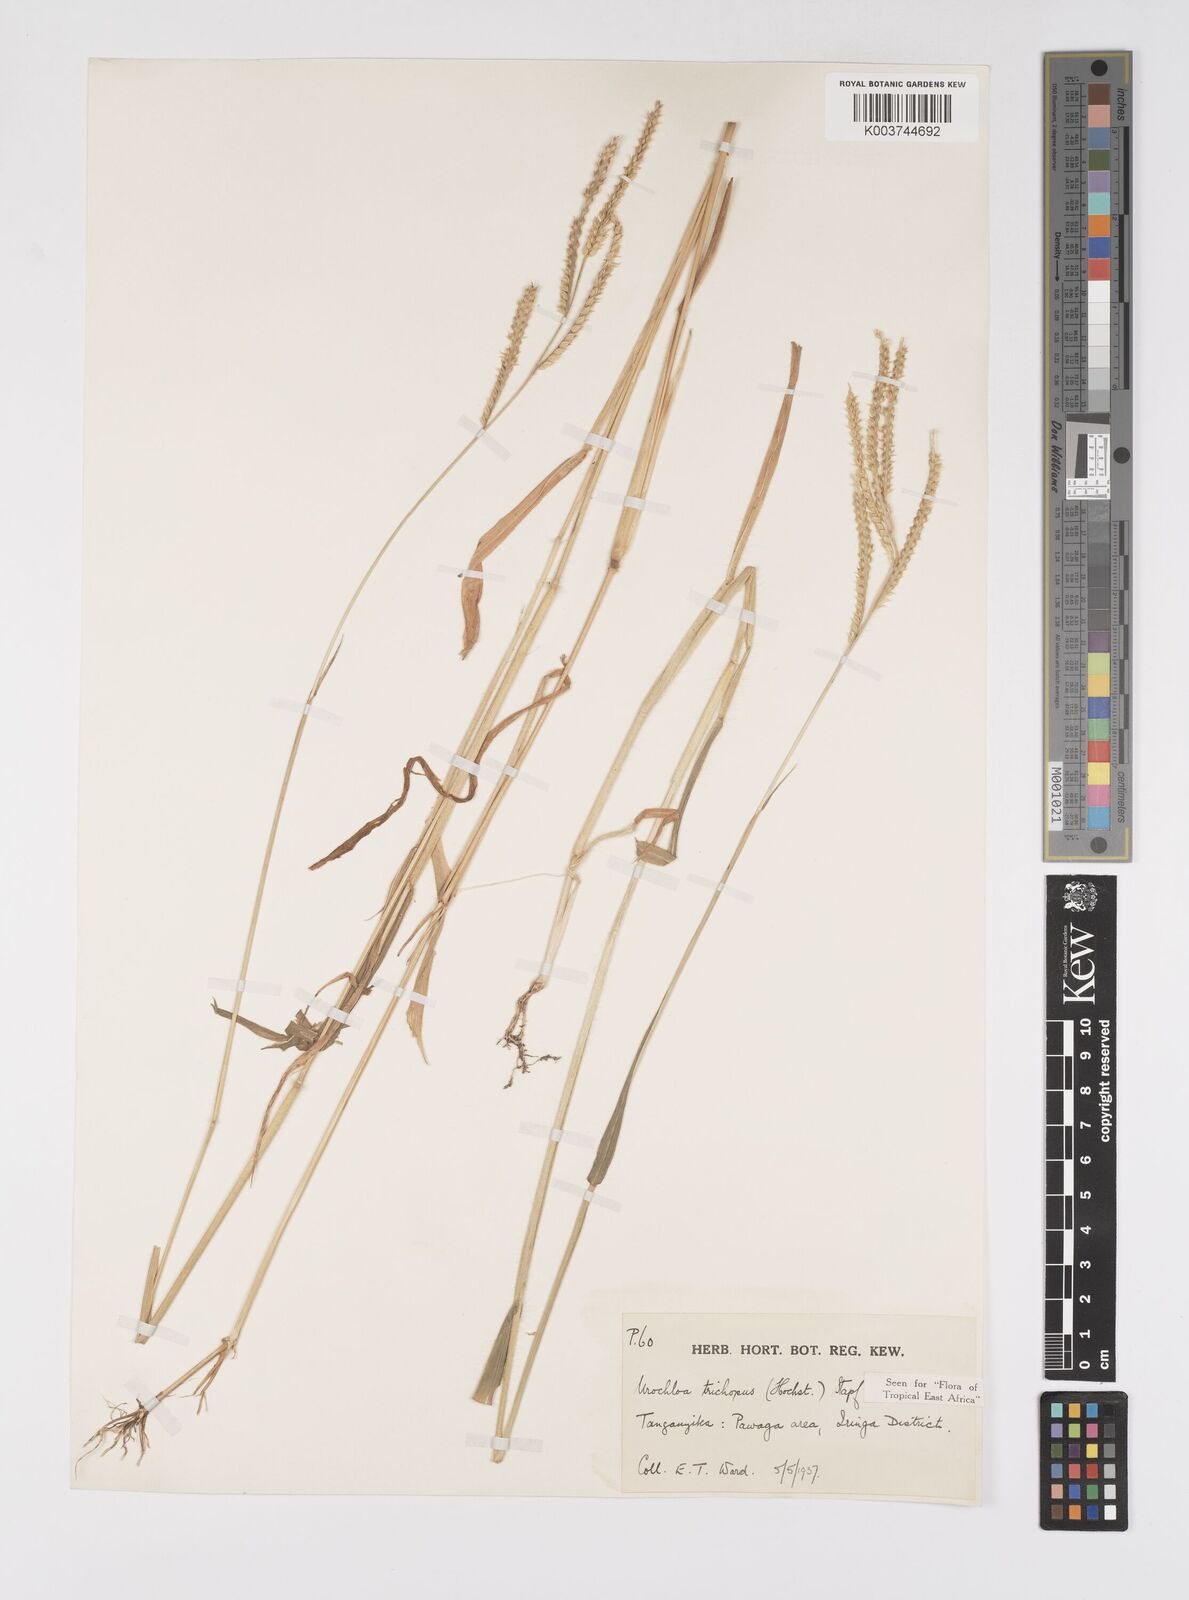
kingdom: Plantae
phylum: Tracheophyta
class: Liliopsida
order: Poales
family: Poaceae
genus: Urochloa
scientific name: Urochloa trichopus
